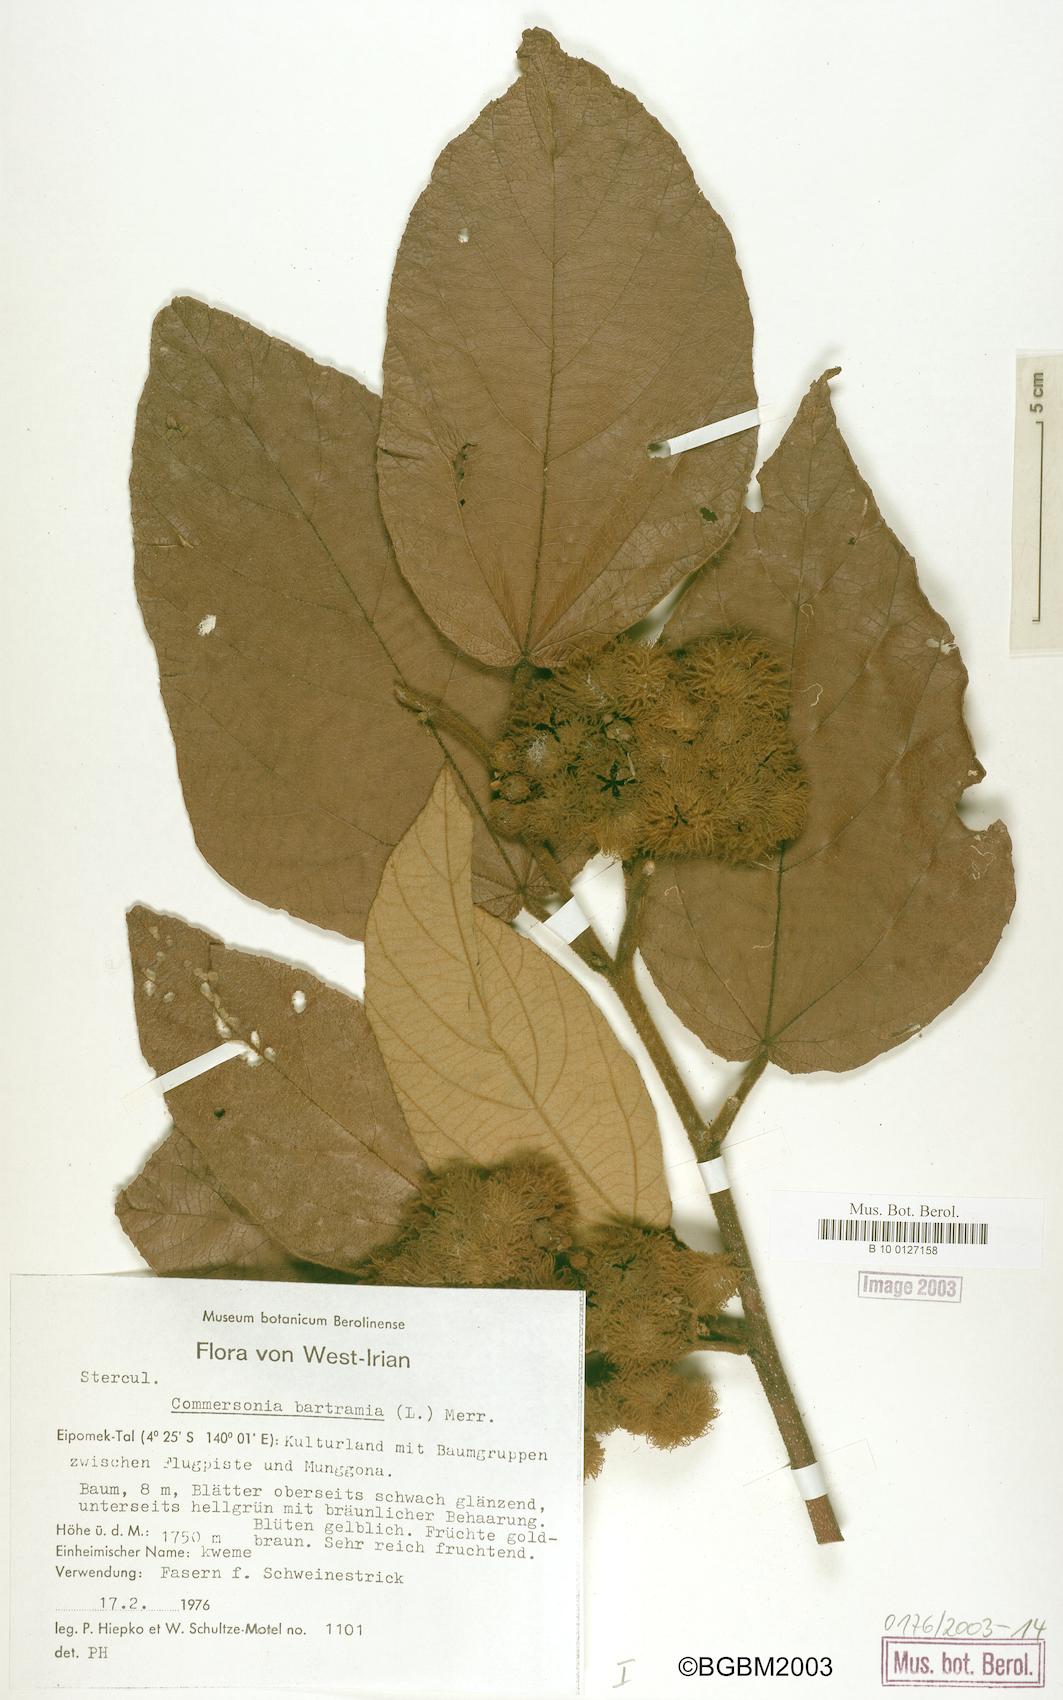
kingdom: Plantae
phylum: Tracheophyta
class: Magnoliopsida
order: Malvales
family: Malvaceae
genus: Commersonia
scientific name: Commersonia bartramia
